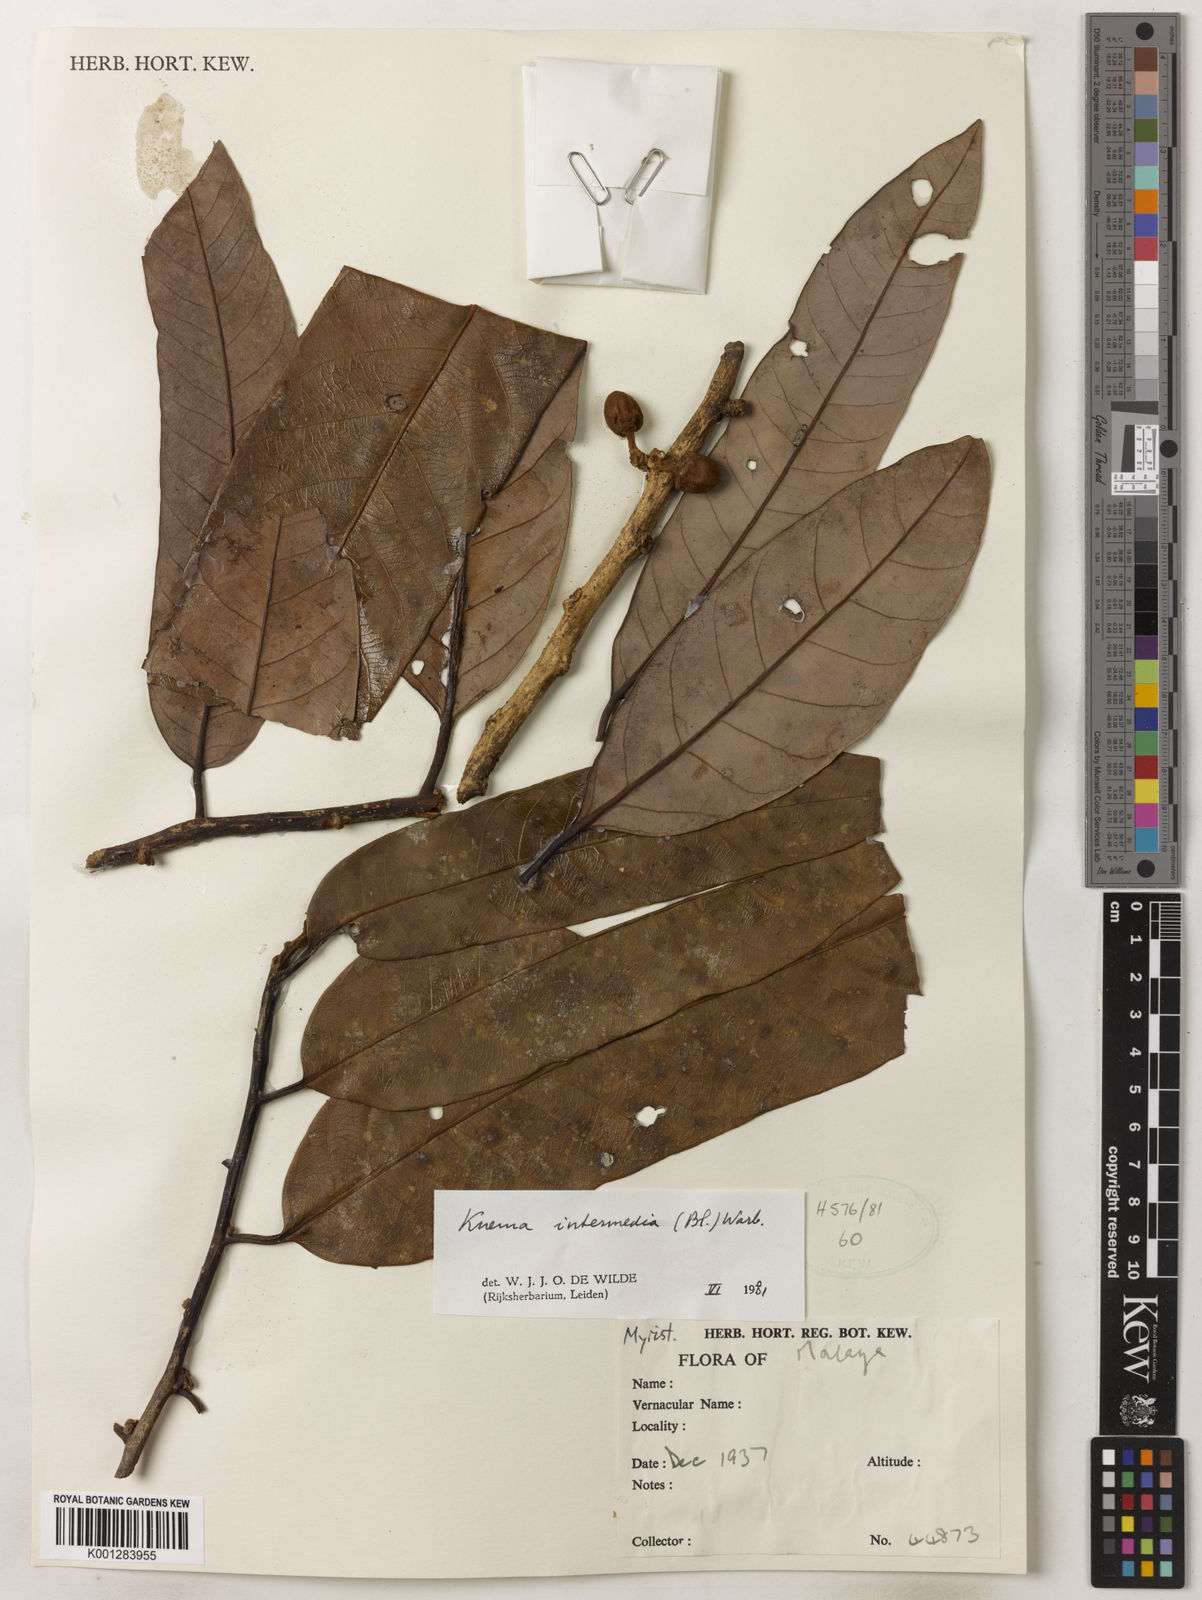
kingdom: Plantae
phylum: Tracheophyta
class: Magnoliopsida
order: Magnoliales
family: Myristicaceae
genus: Knema
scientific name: Knema intermedia
